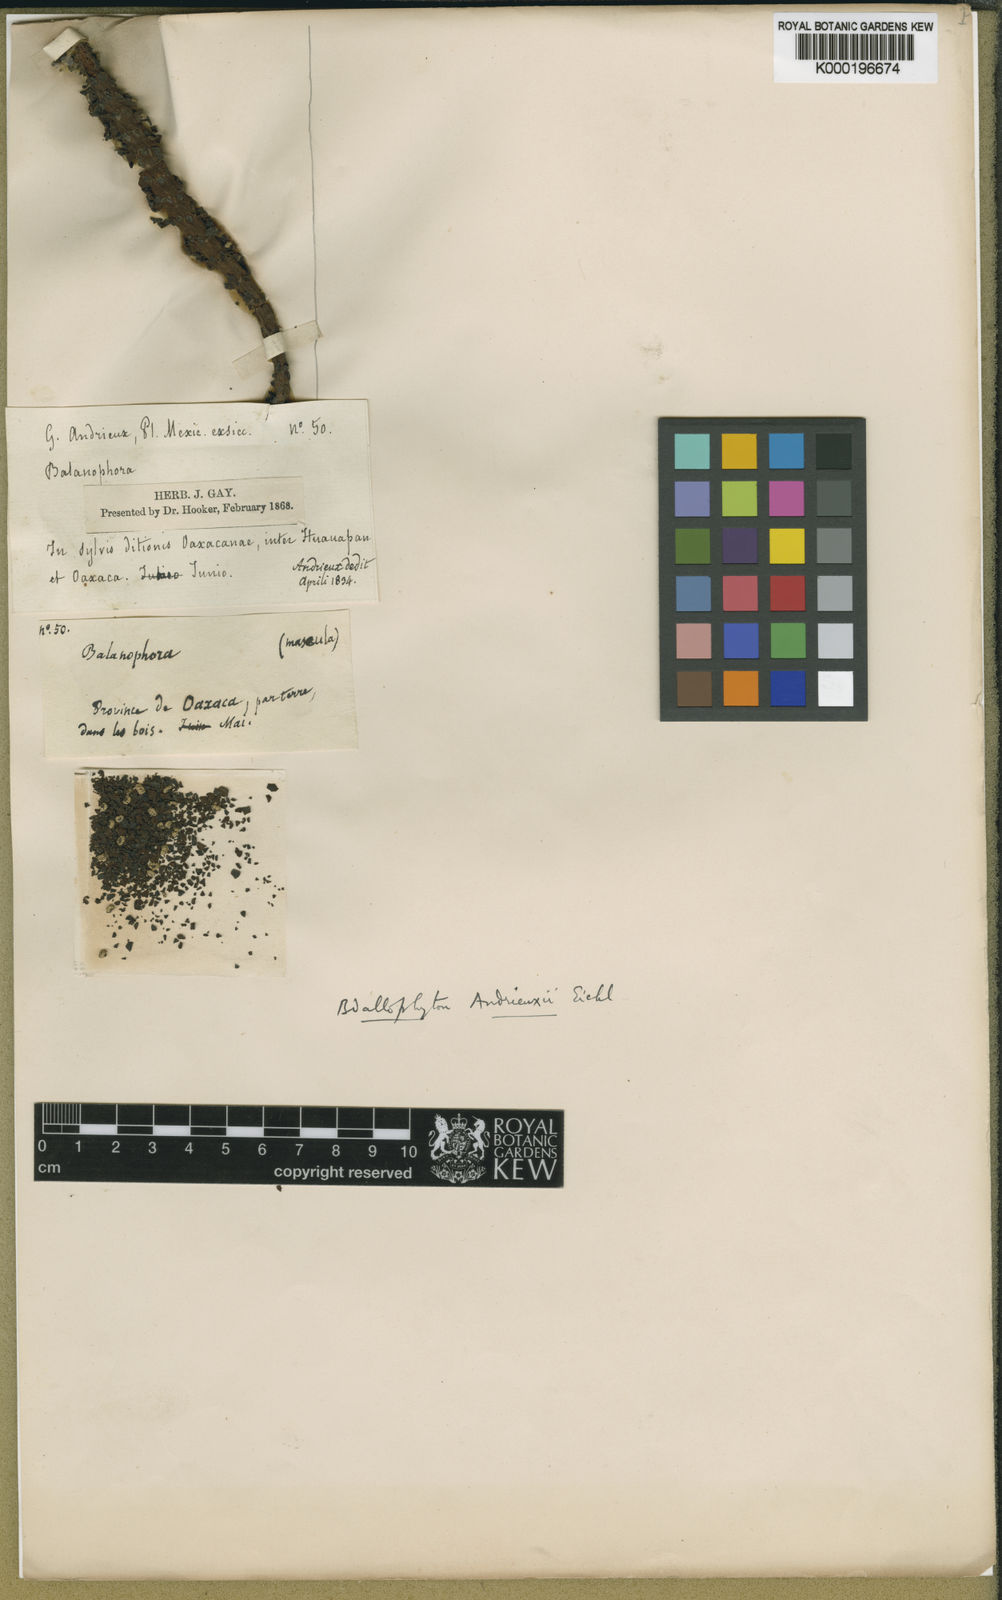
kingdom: Plantae
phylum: Tracheophyta
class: Magnoliopsida
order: Malvales
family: Cytinaceae
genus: Bdallophyton
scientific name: Bdallophyton andrieuxii
